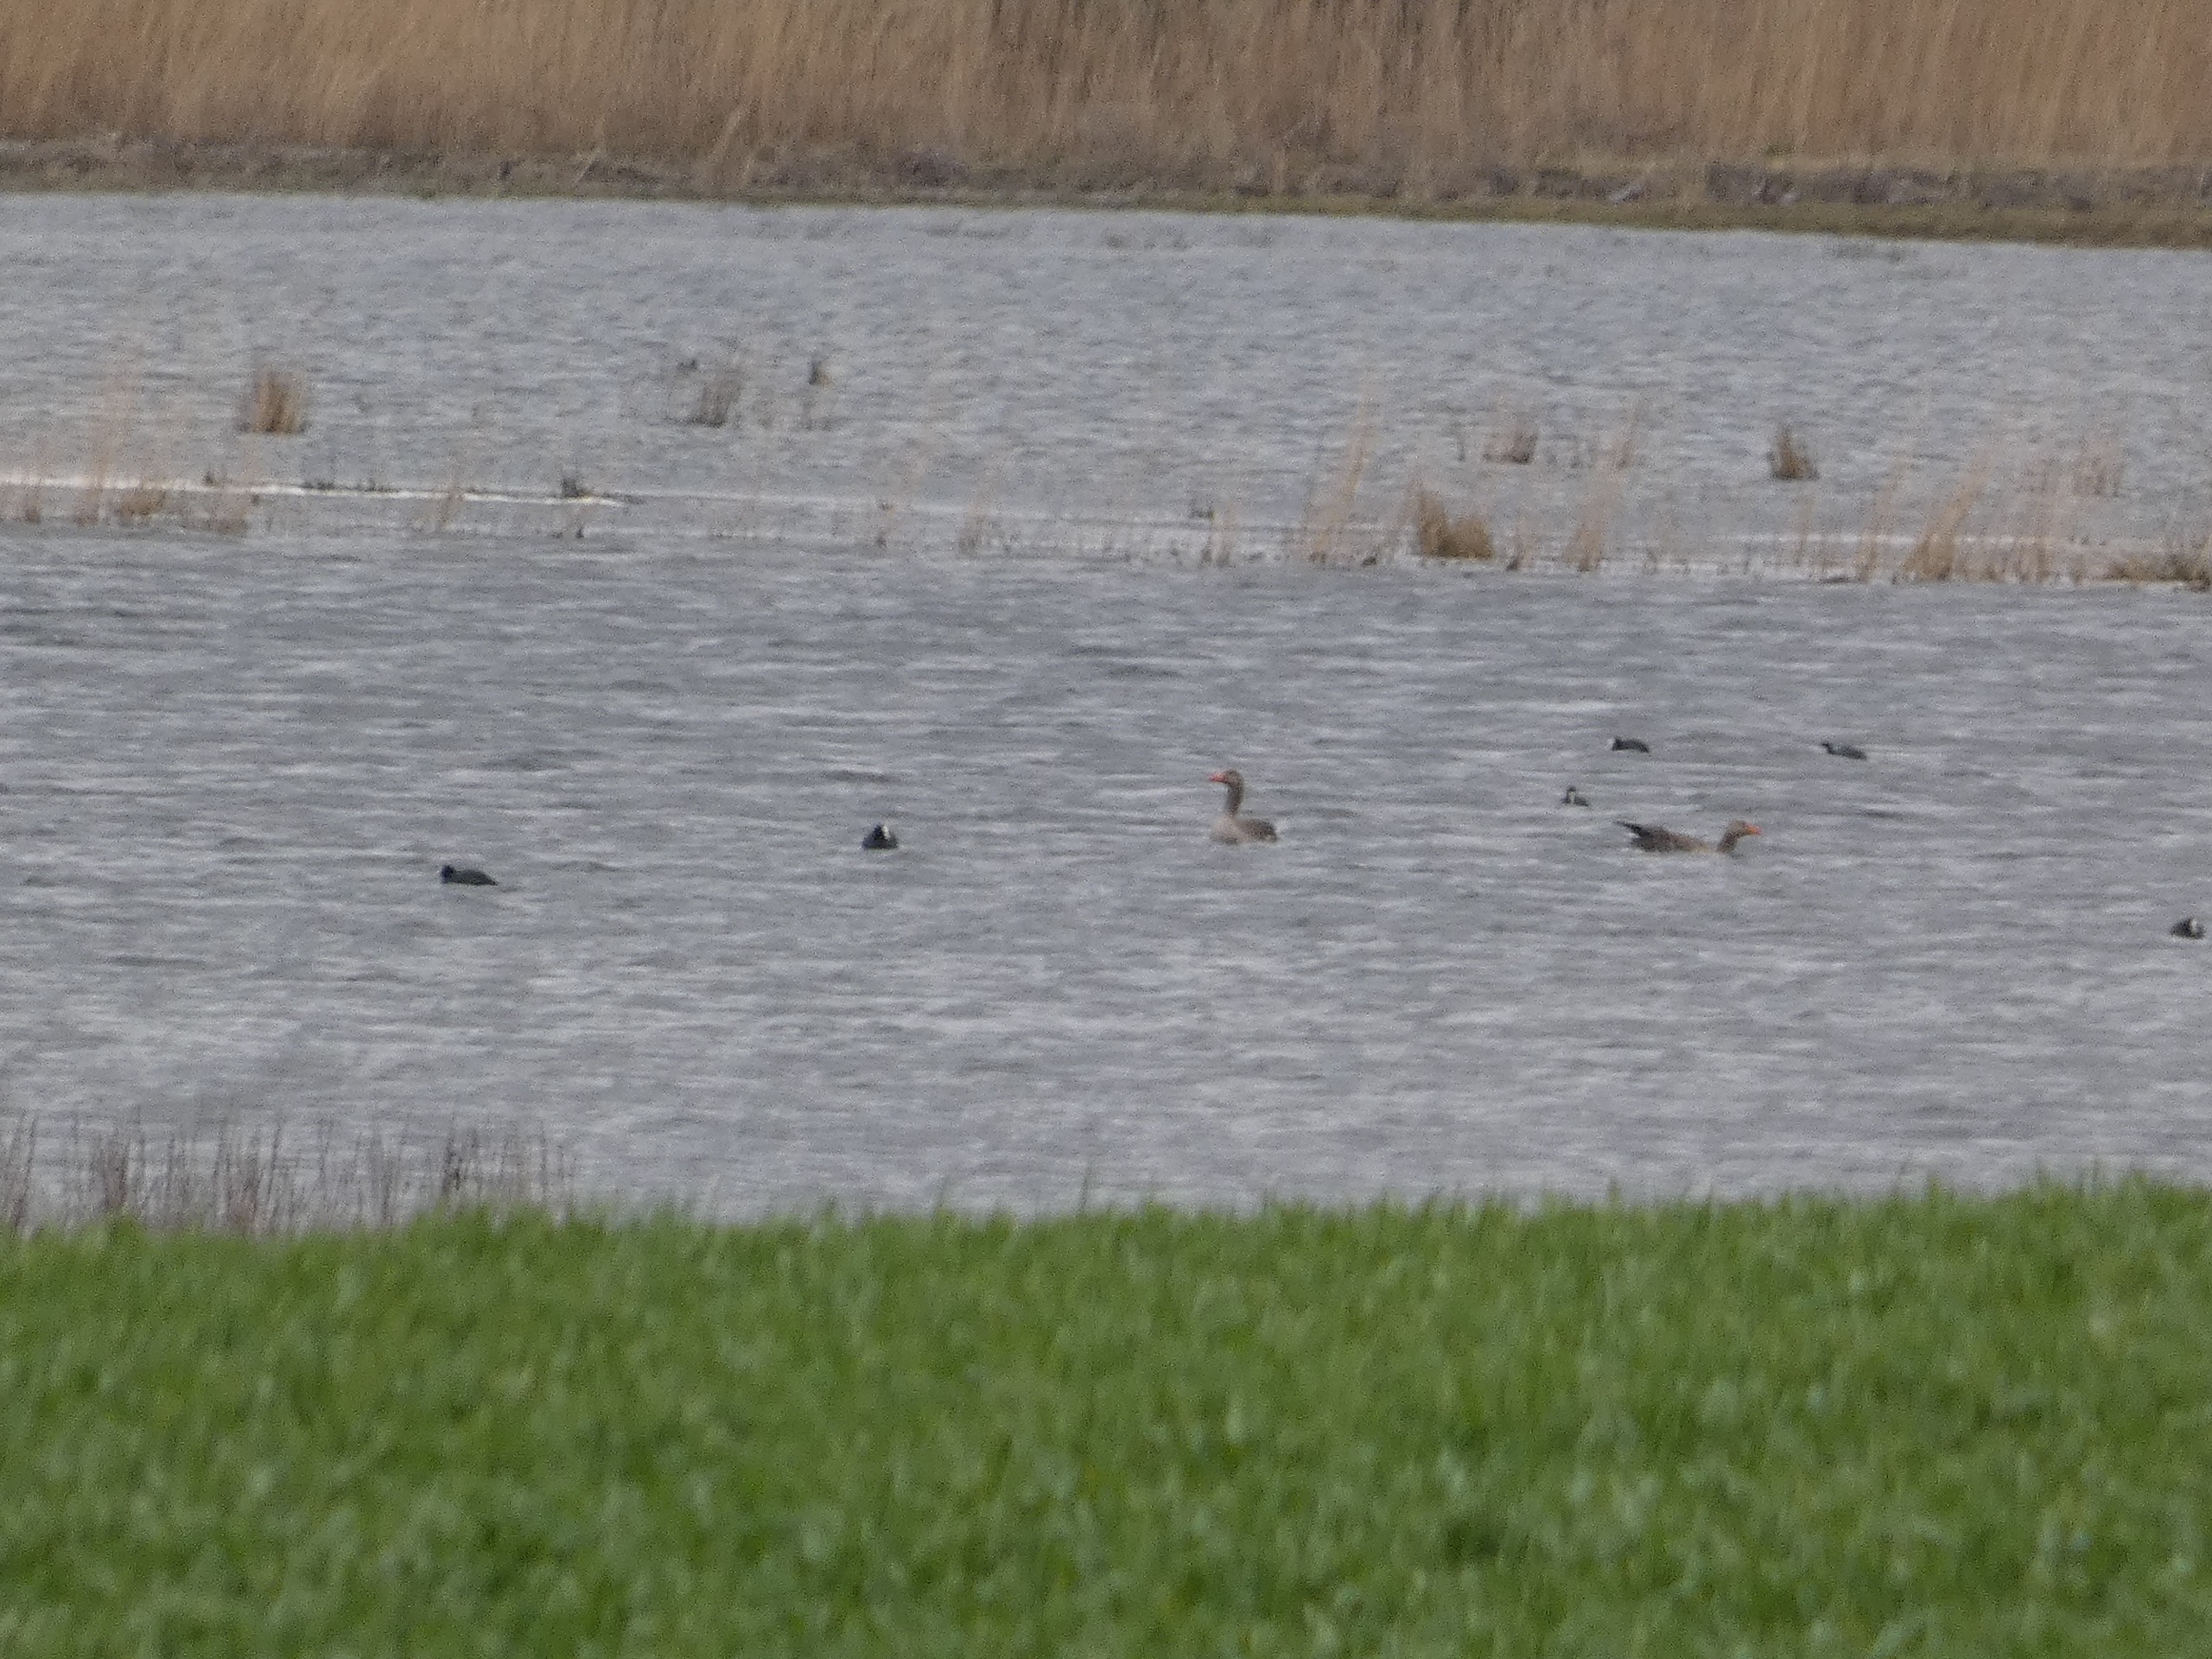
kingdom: Animalia
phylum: Chordata
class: Aves
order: Gruiformes
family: Rallidae
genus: Fulica
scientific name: Fulica atra
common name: Blishøne
